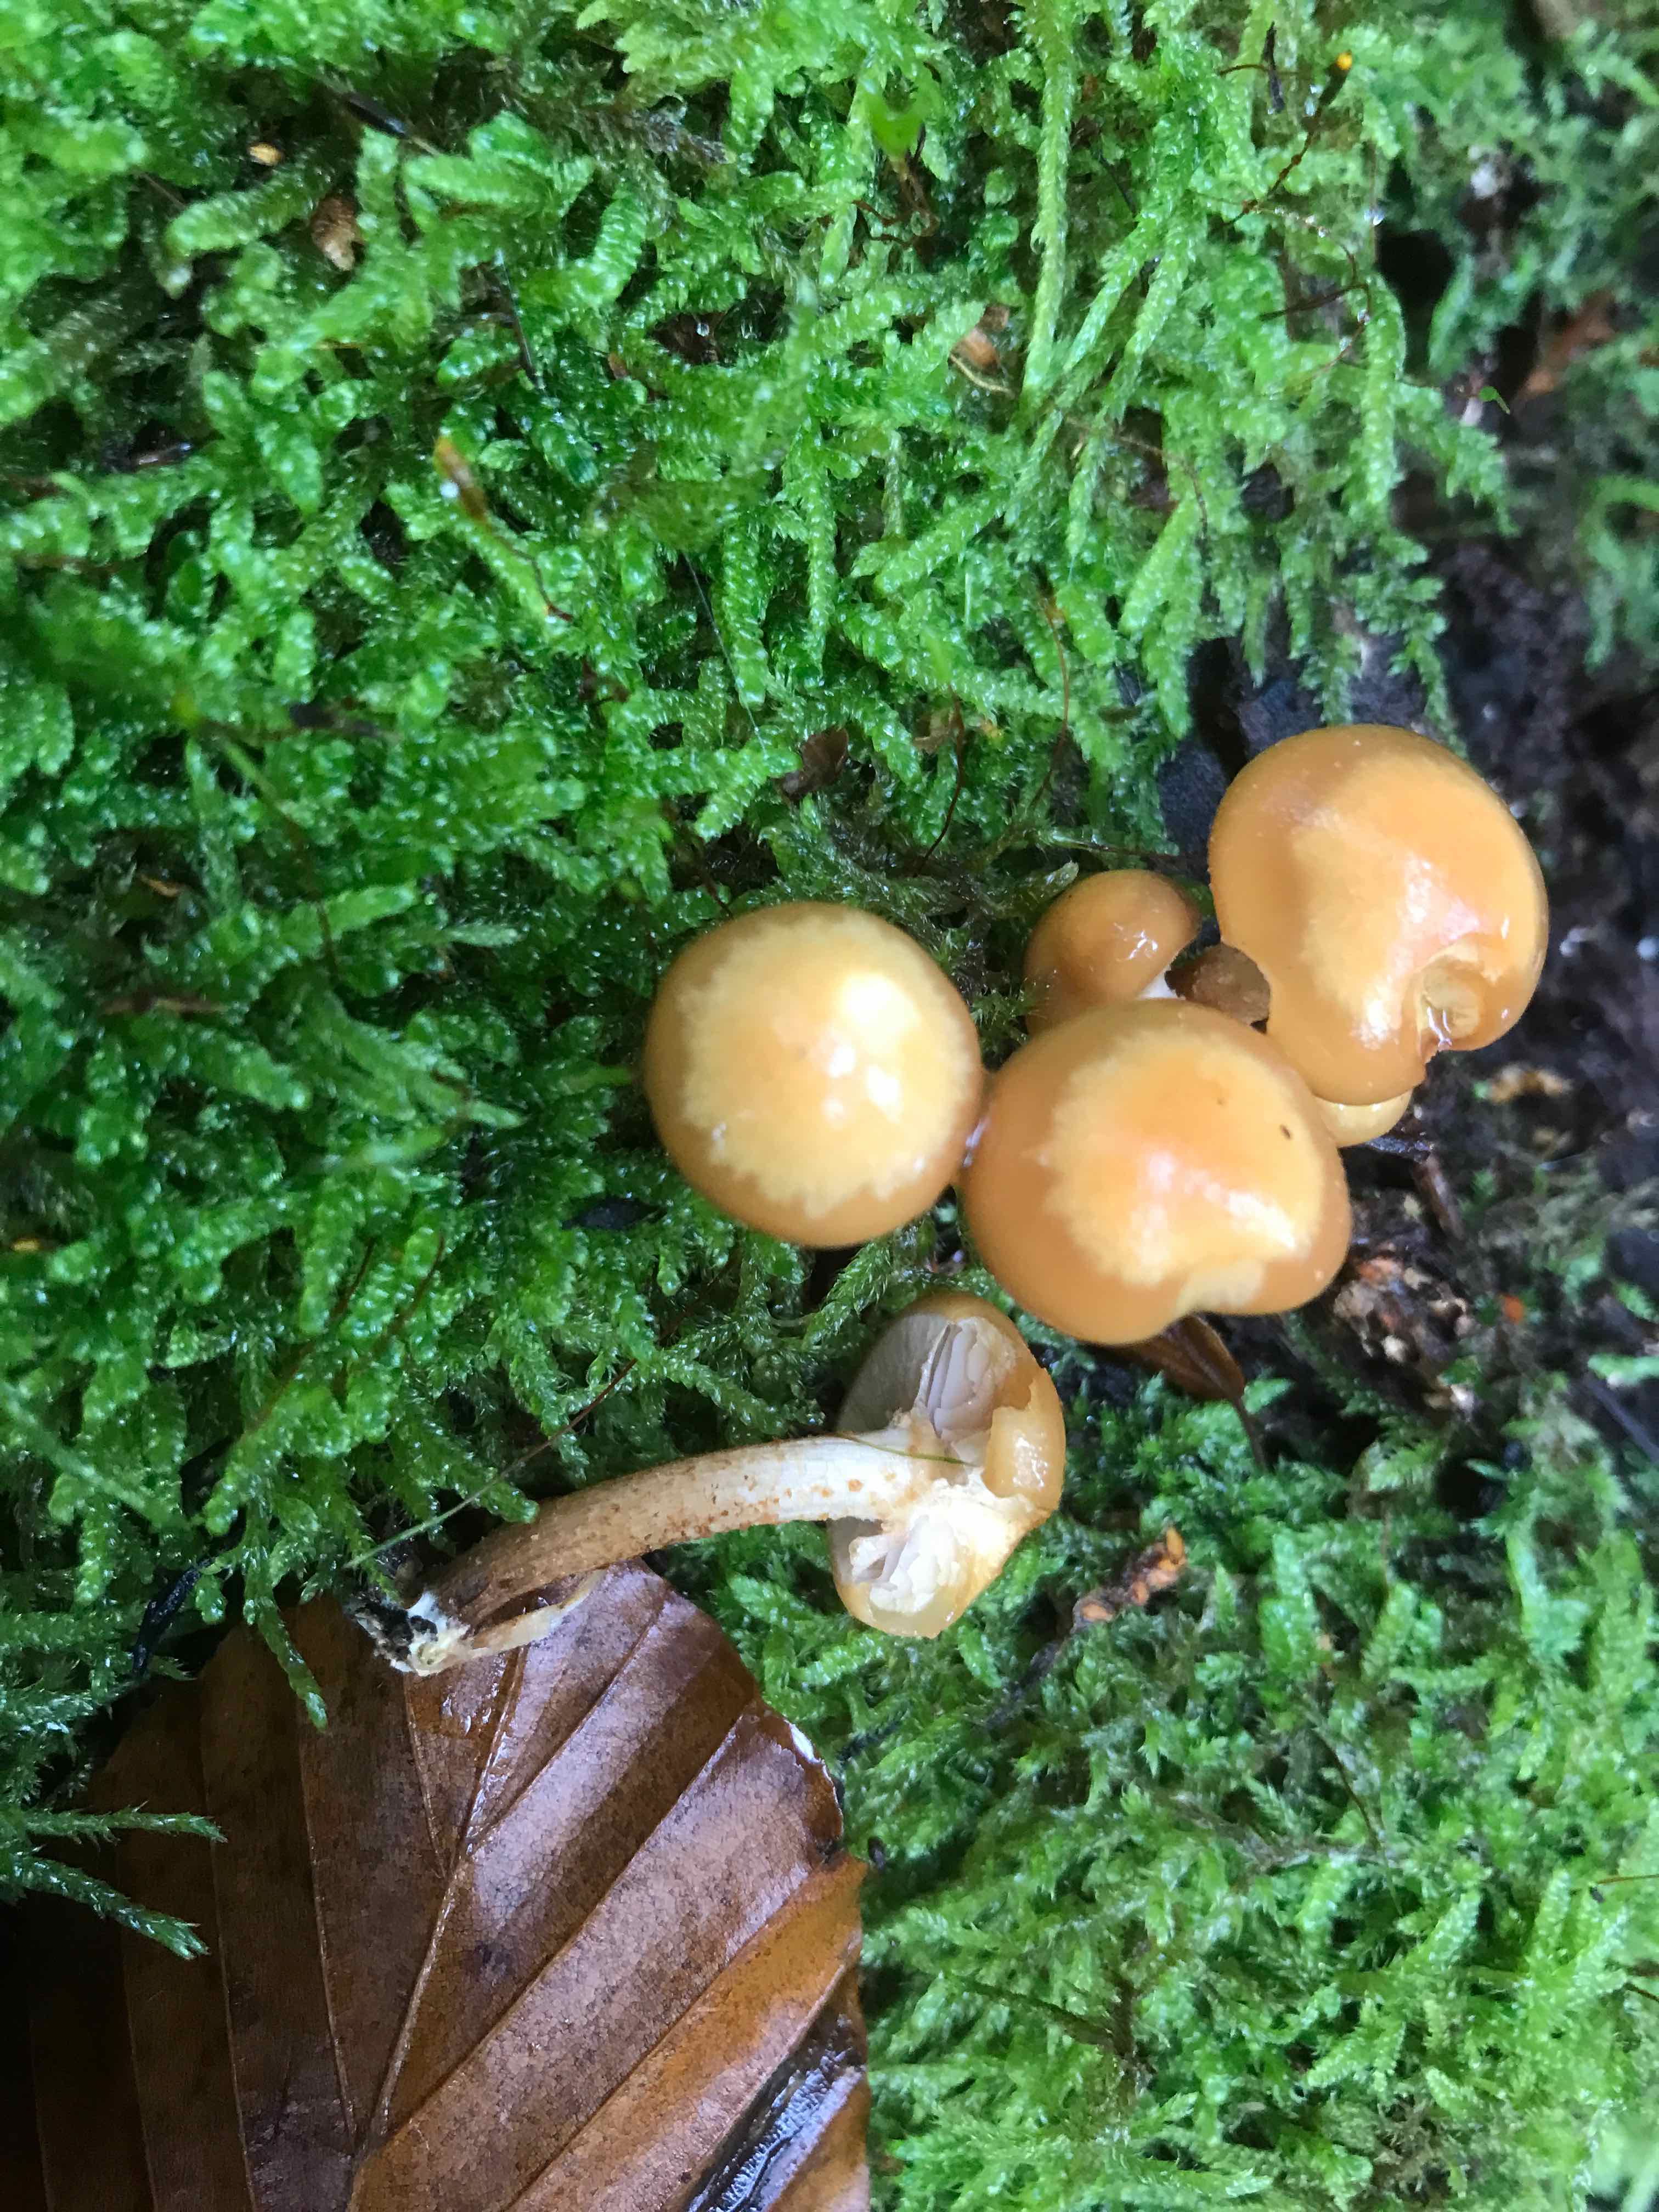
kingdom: Fungi
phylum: Basidiomycota
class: Agaricomycetes
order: Agaricales
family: Strophariaceae
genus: Kuehneromyces
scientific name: Kuehneromyces mutabilis
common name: foranderlig skælhat
